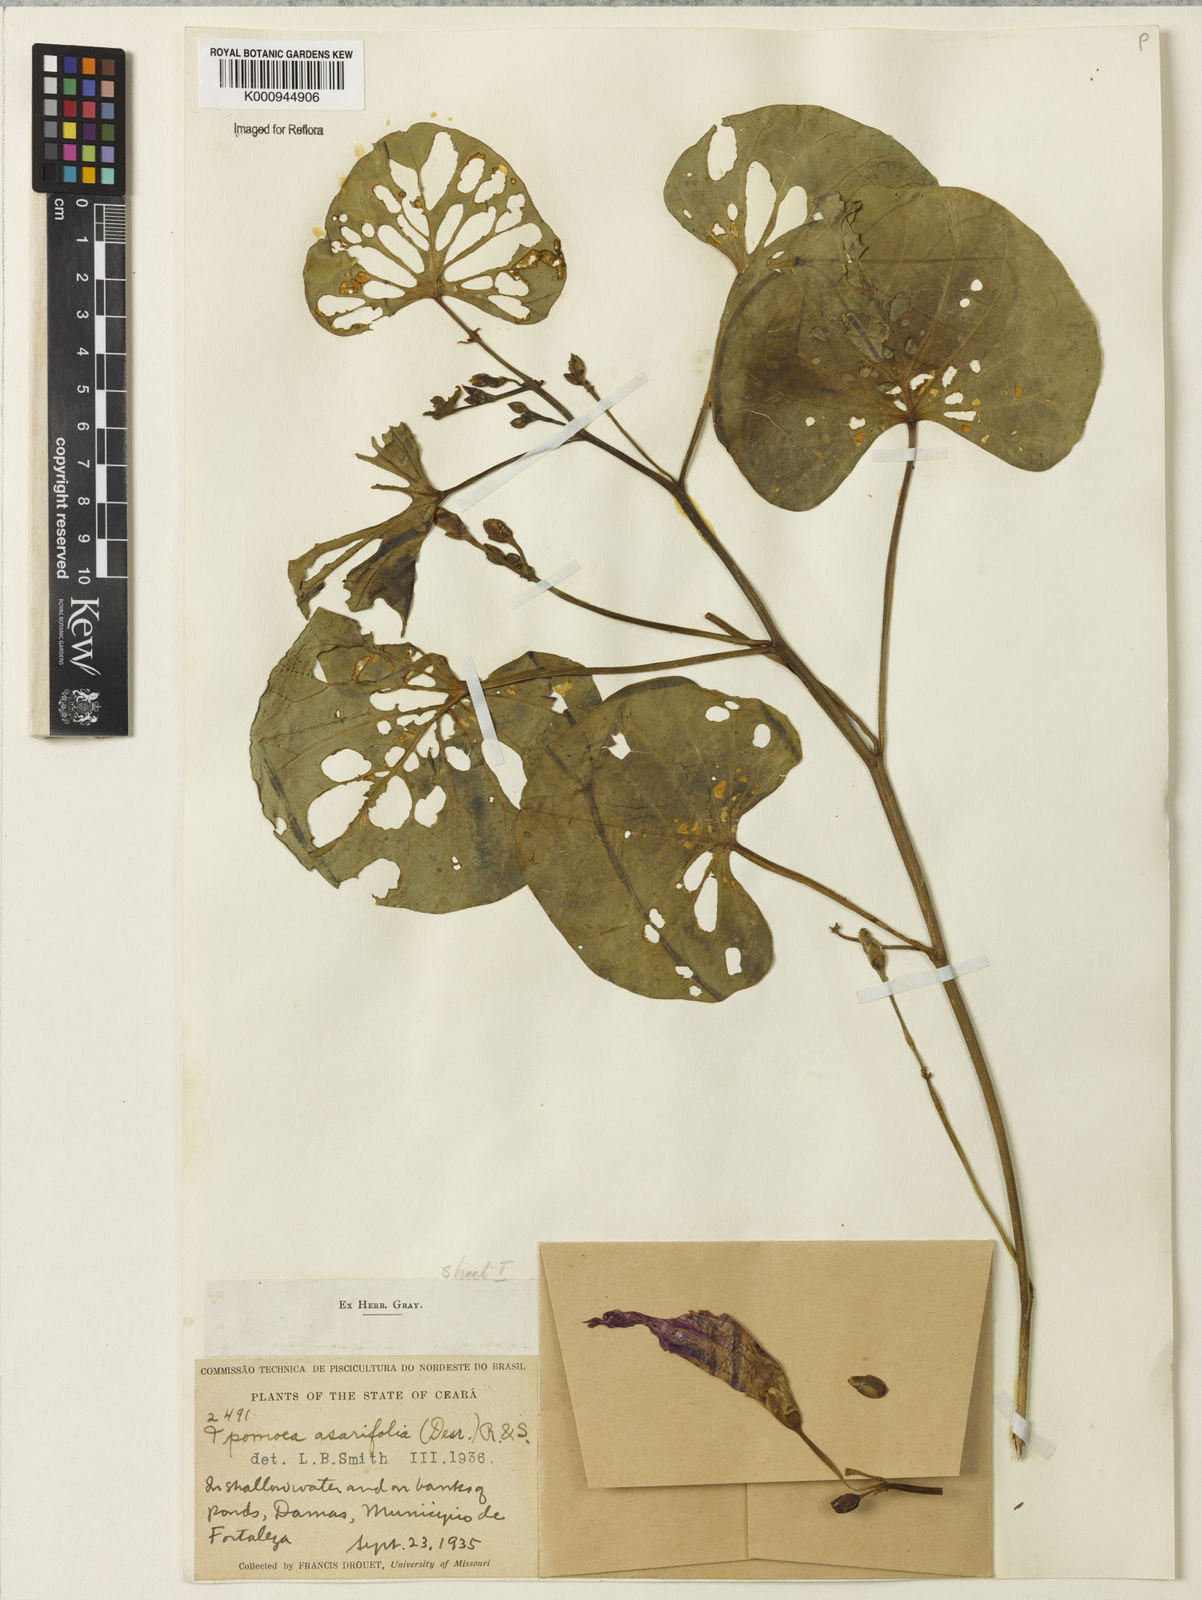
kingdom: Plantae
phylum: Tracheophyta
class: Magnoliopsida
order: Solanales
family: Convolvulaceae
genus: Ipomoea
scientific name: Ipomoea asarifolia
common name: Ginger-leaf morning-glory
